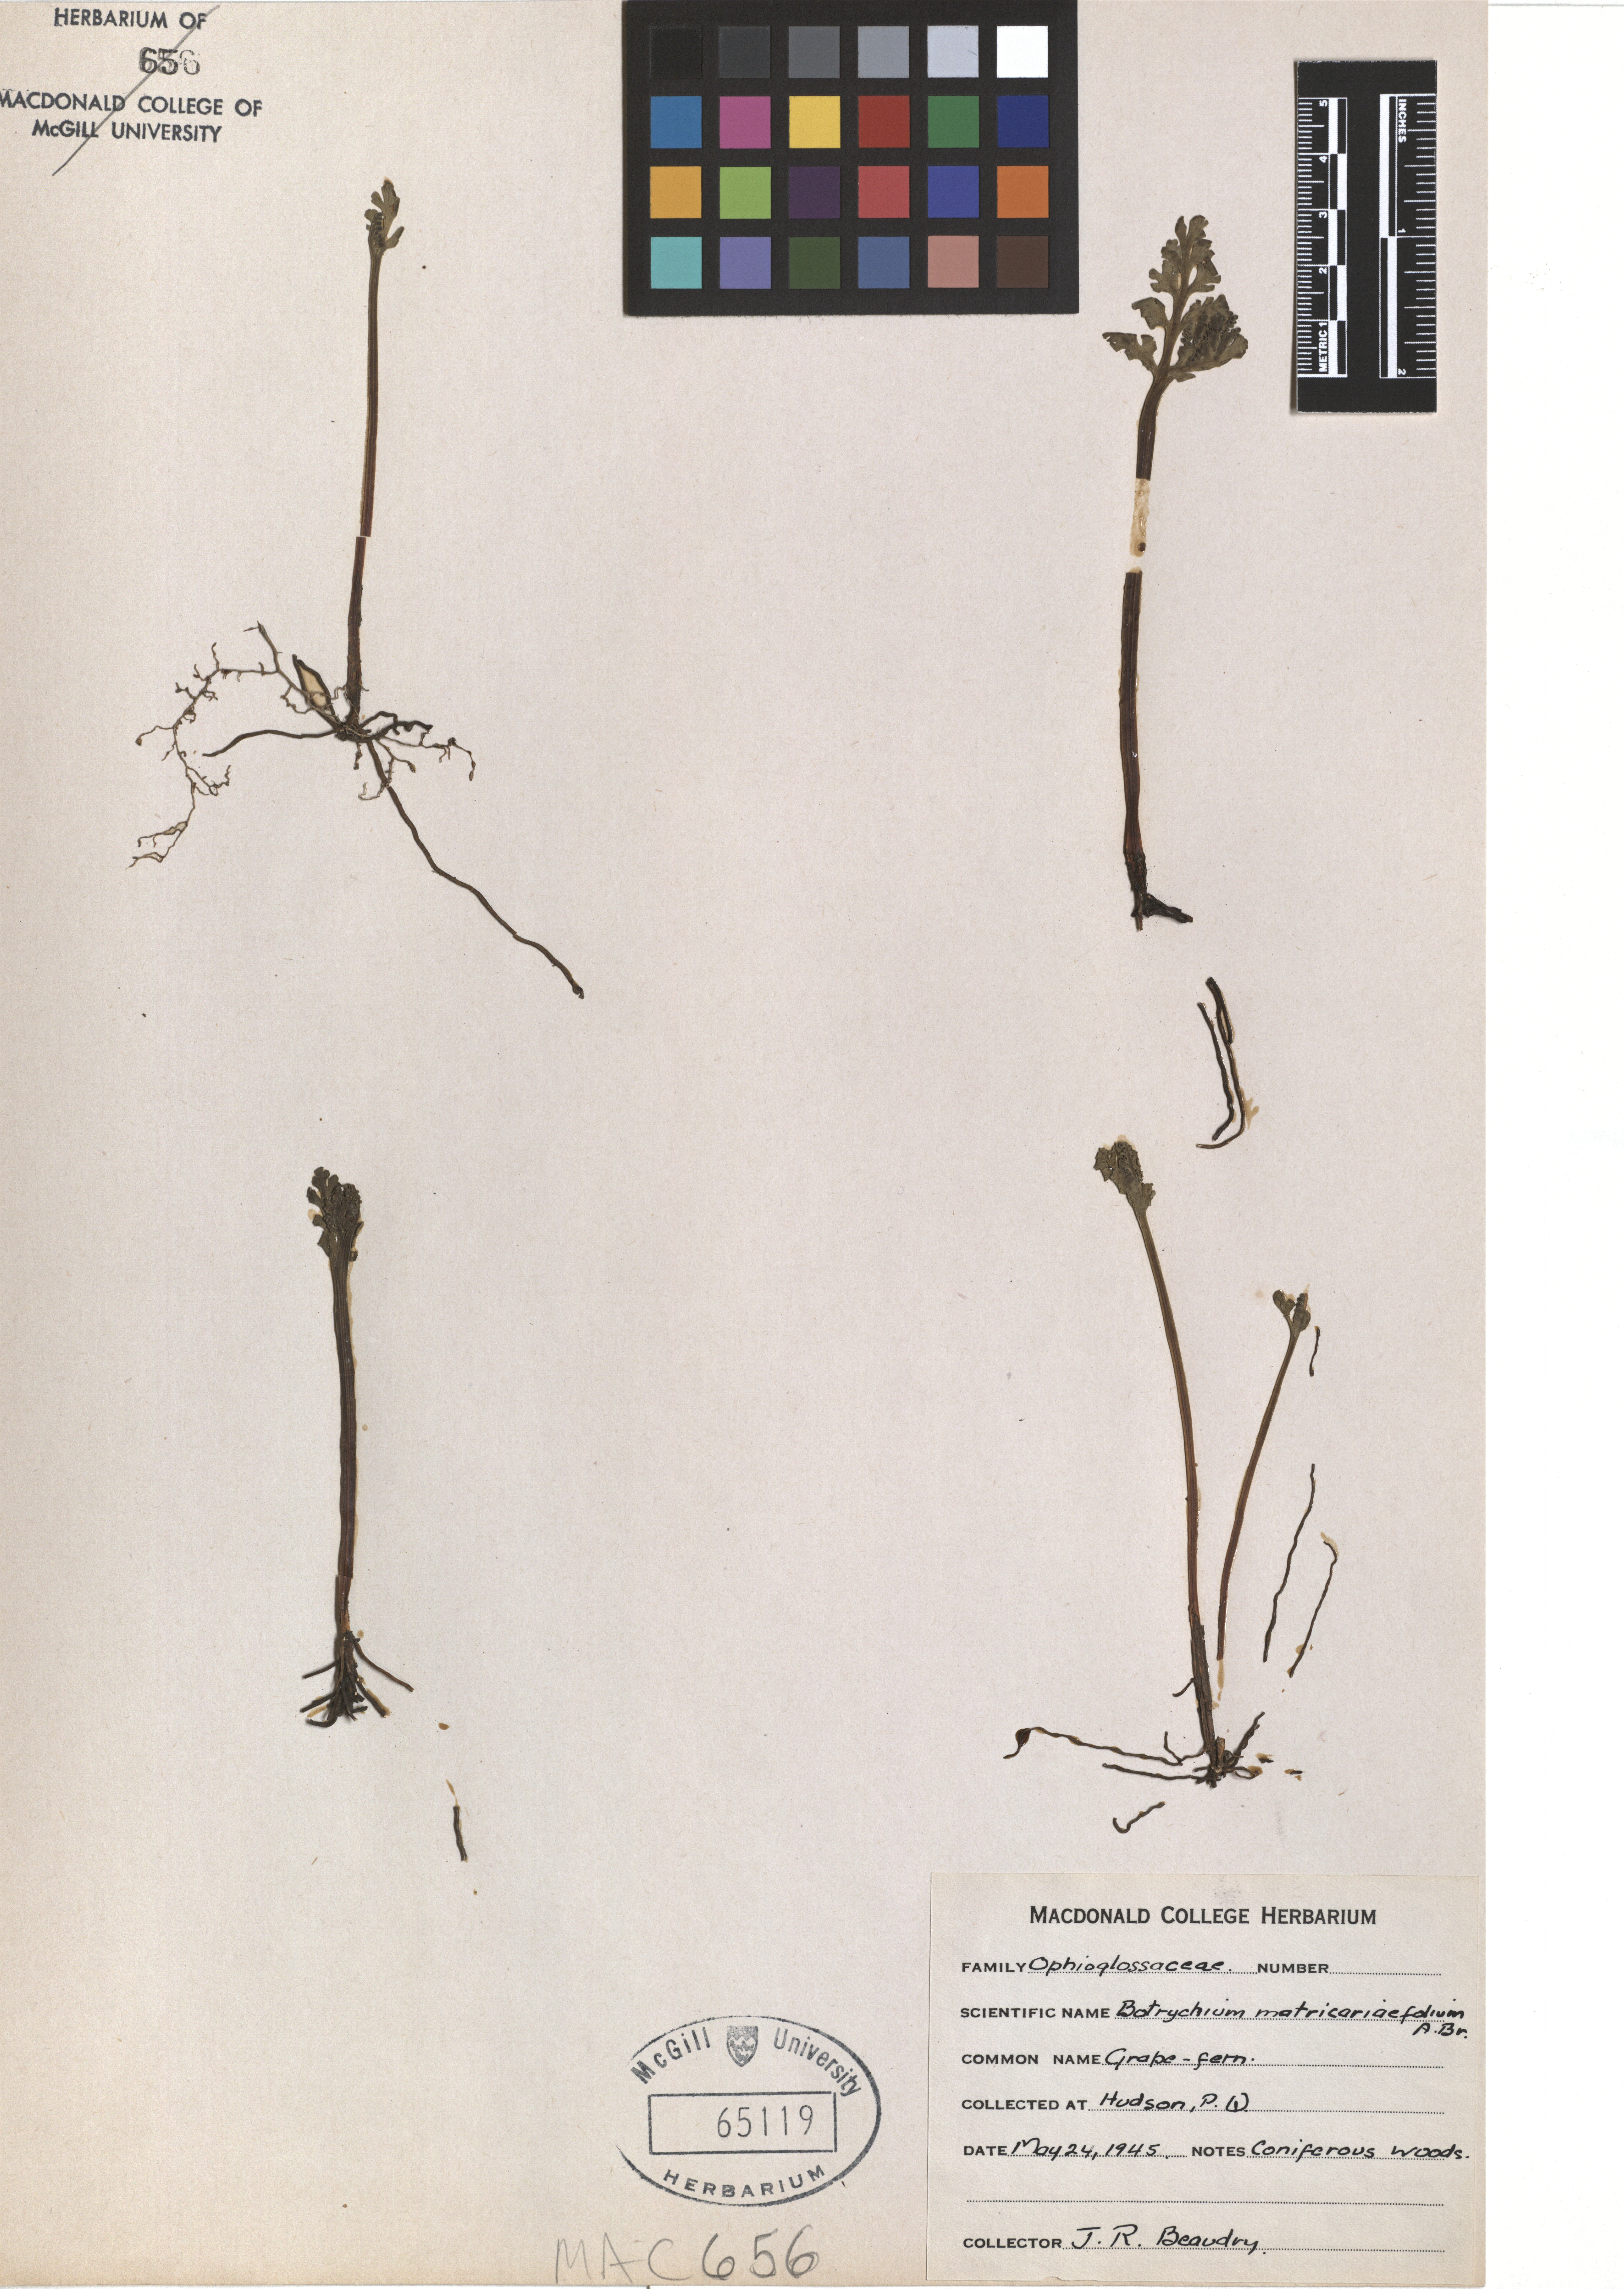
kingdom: Plantae
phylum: Tracheophyta
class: Polypodiopsida
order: Ophioglossales
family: Ophioglossaceae
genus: Botrychium
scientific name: Botrychium matricariifolium
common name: Branched moonwort
